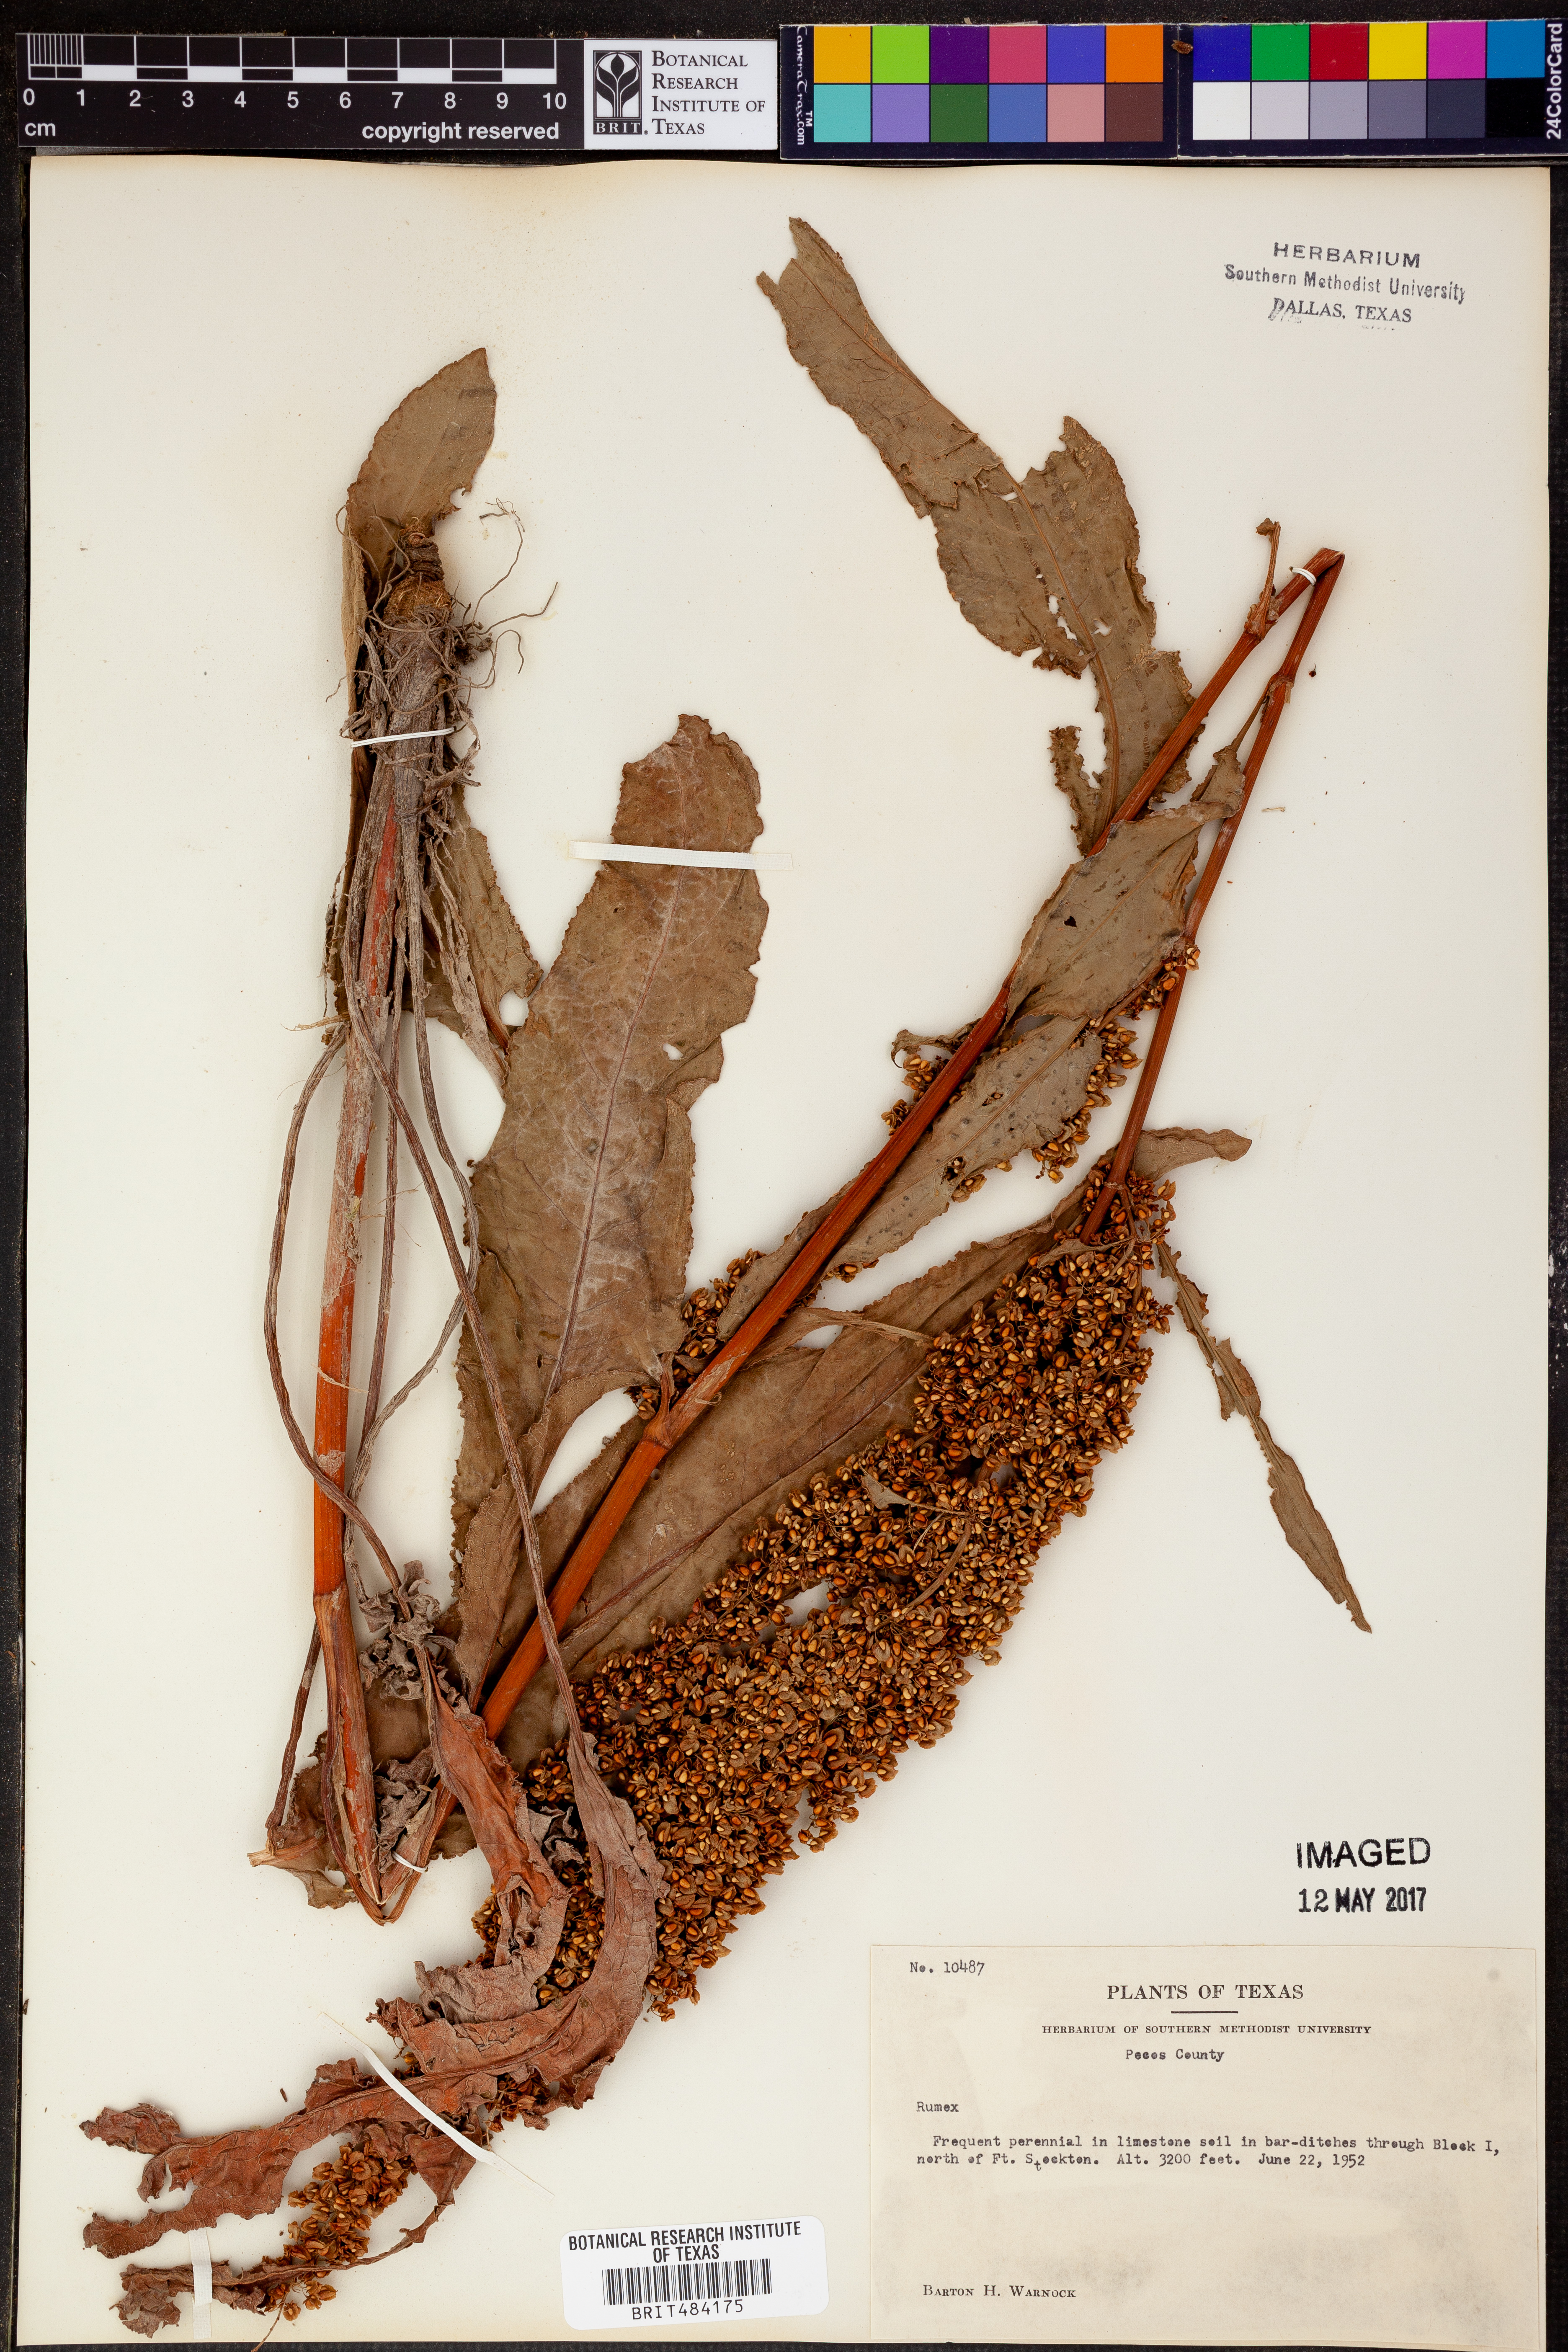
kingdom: Plantae
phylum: Tracheophyta
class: Magnoliopsida
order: Caryophyllales
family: Polygonaceae
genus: Rumex
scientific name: Rumex
